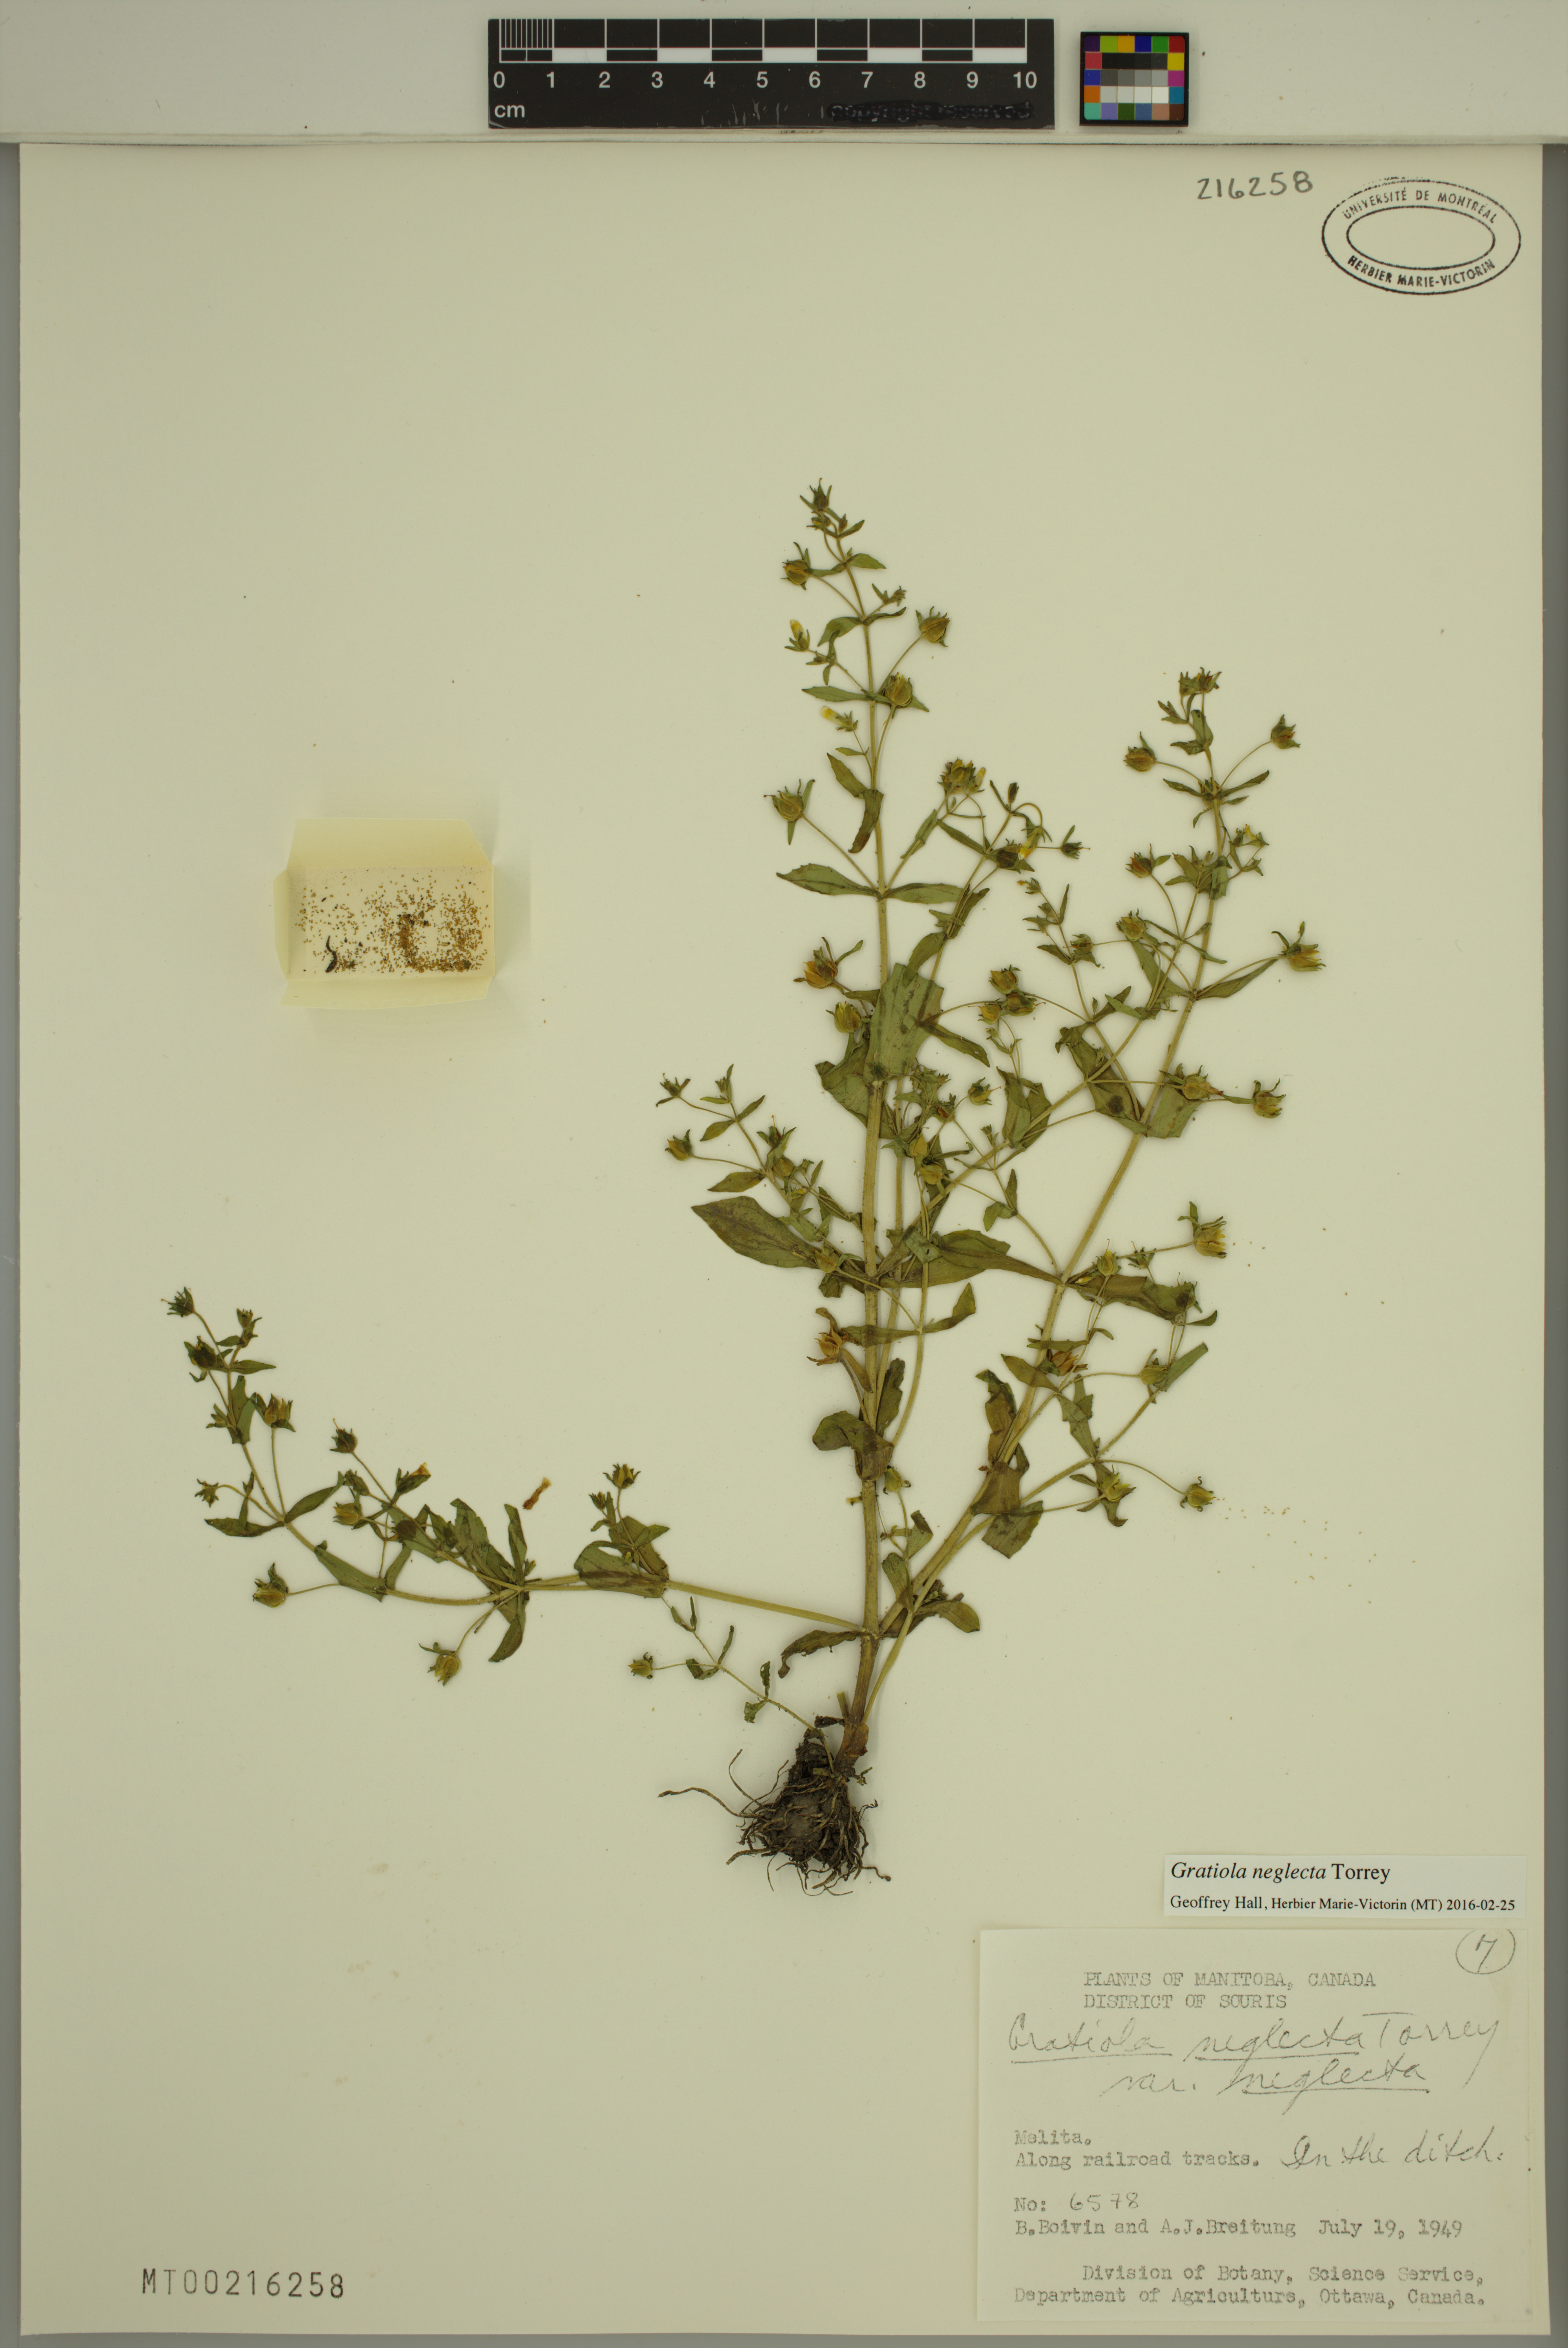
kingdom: Plantae
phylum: Tracheophyta
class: Magnoliopsida
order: Lamiales
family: Plantaginaceae
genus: Gratiola
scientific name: Gratiola neglecta
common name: American hedge-hyssop
